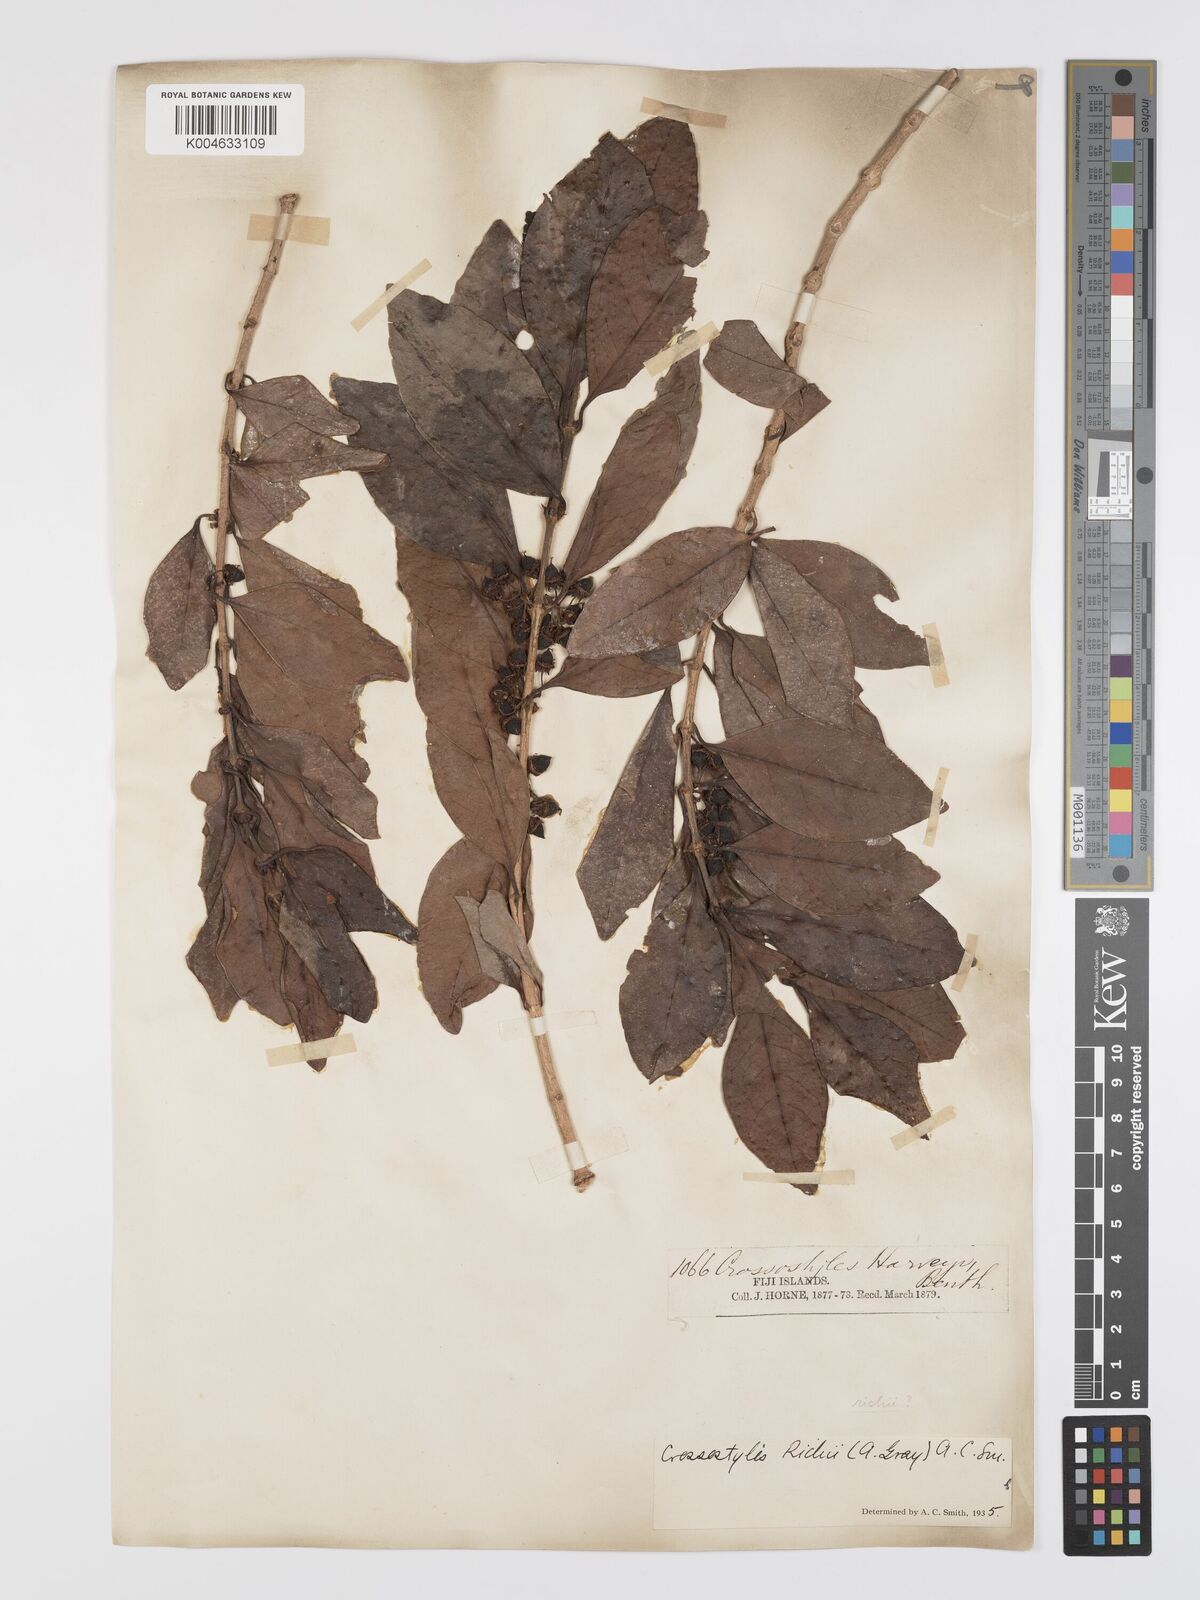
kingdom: Plantae
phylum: Tracheophyta
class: Magnoliopsida
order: Malpighiales
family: Rhizophoraceae
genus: Crossostylis
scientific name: Crossostylis richii
